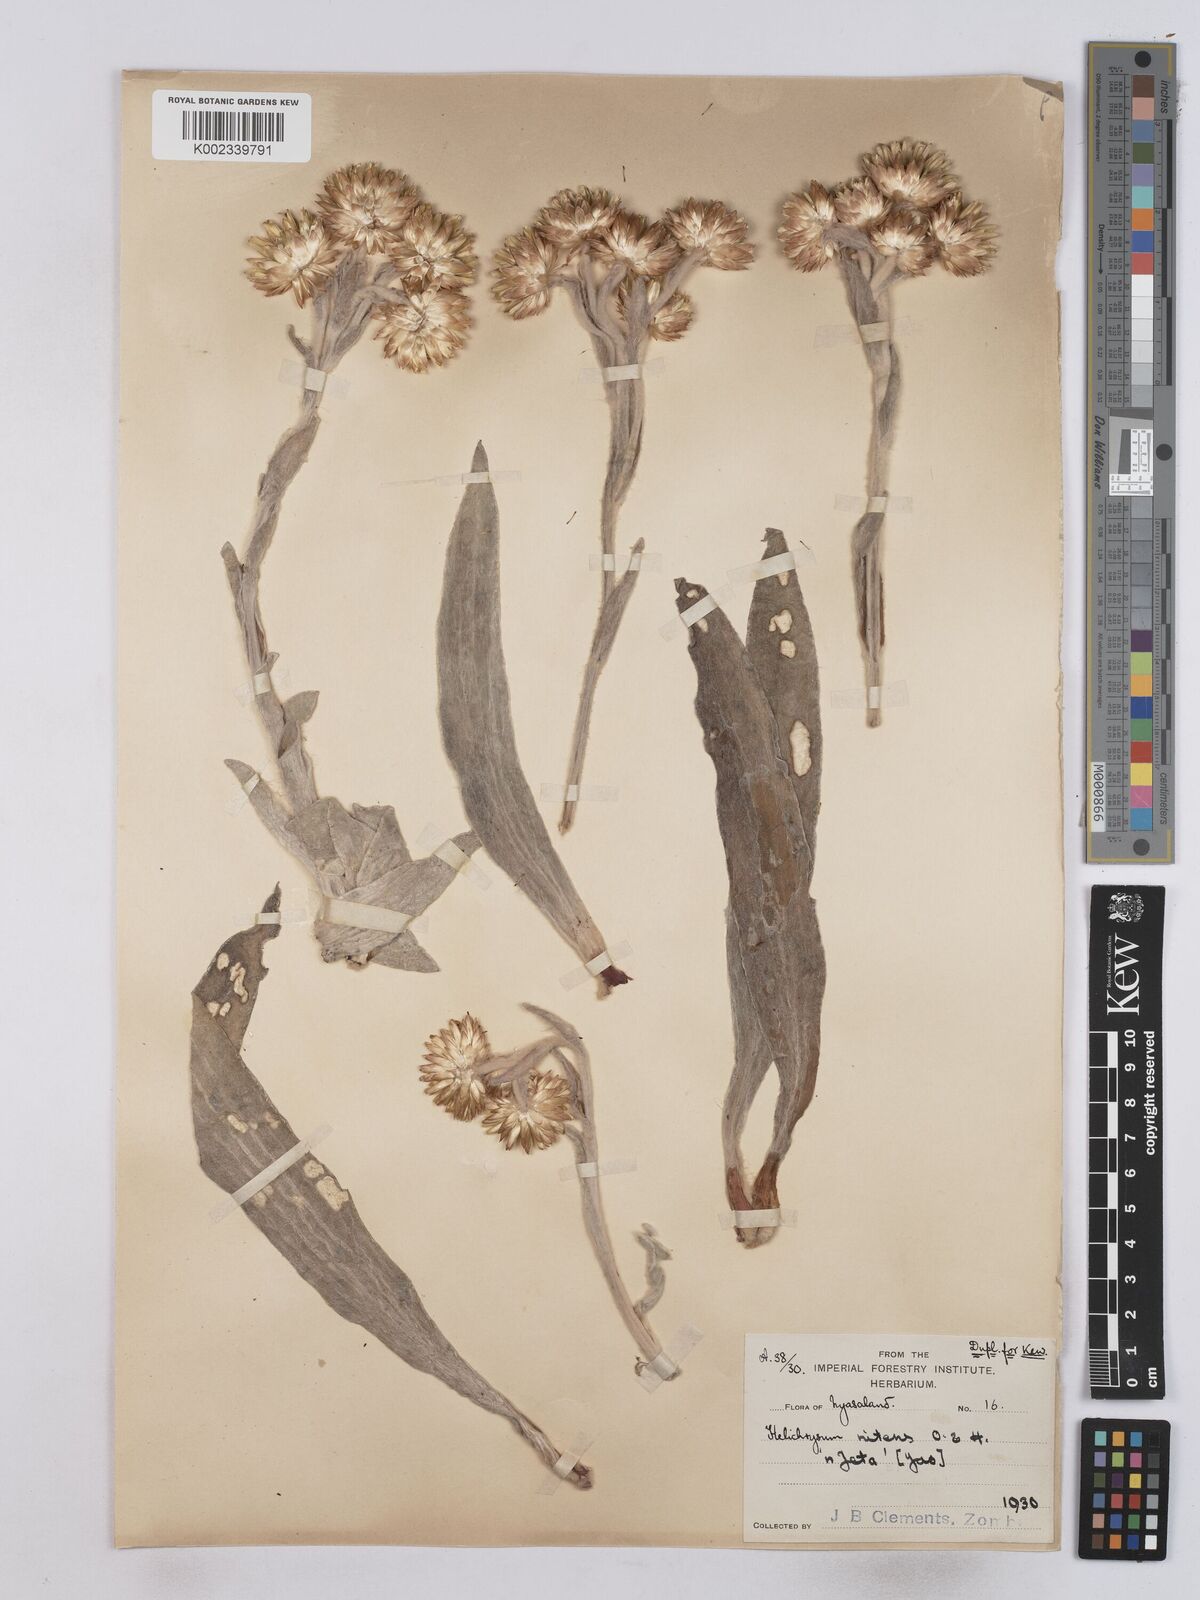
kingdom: Plantae
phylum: Tracheophyta
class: Magnoliopsida
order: Asterales
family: Asteraceae
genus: Helichrysum
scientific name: Helichrysum nitens
